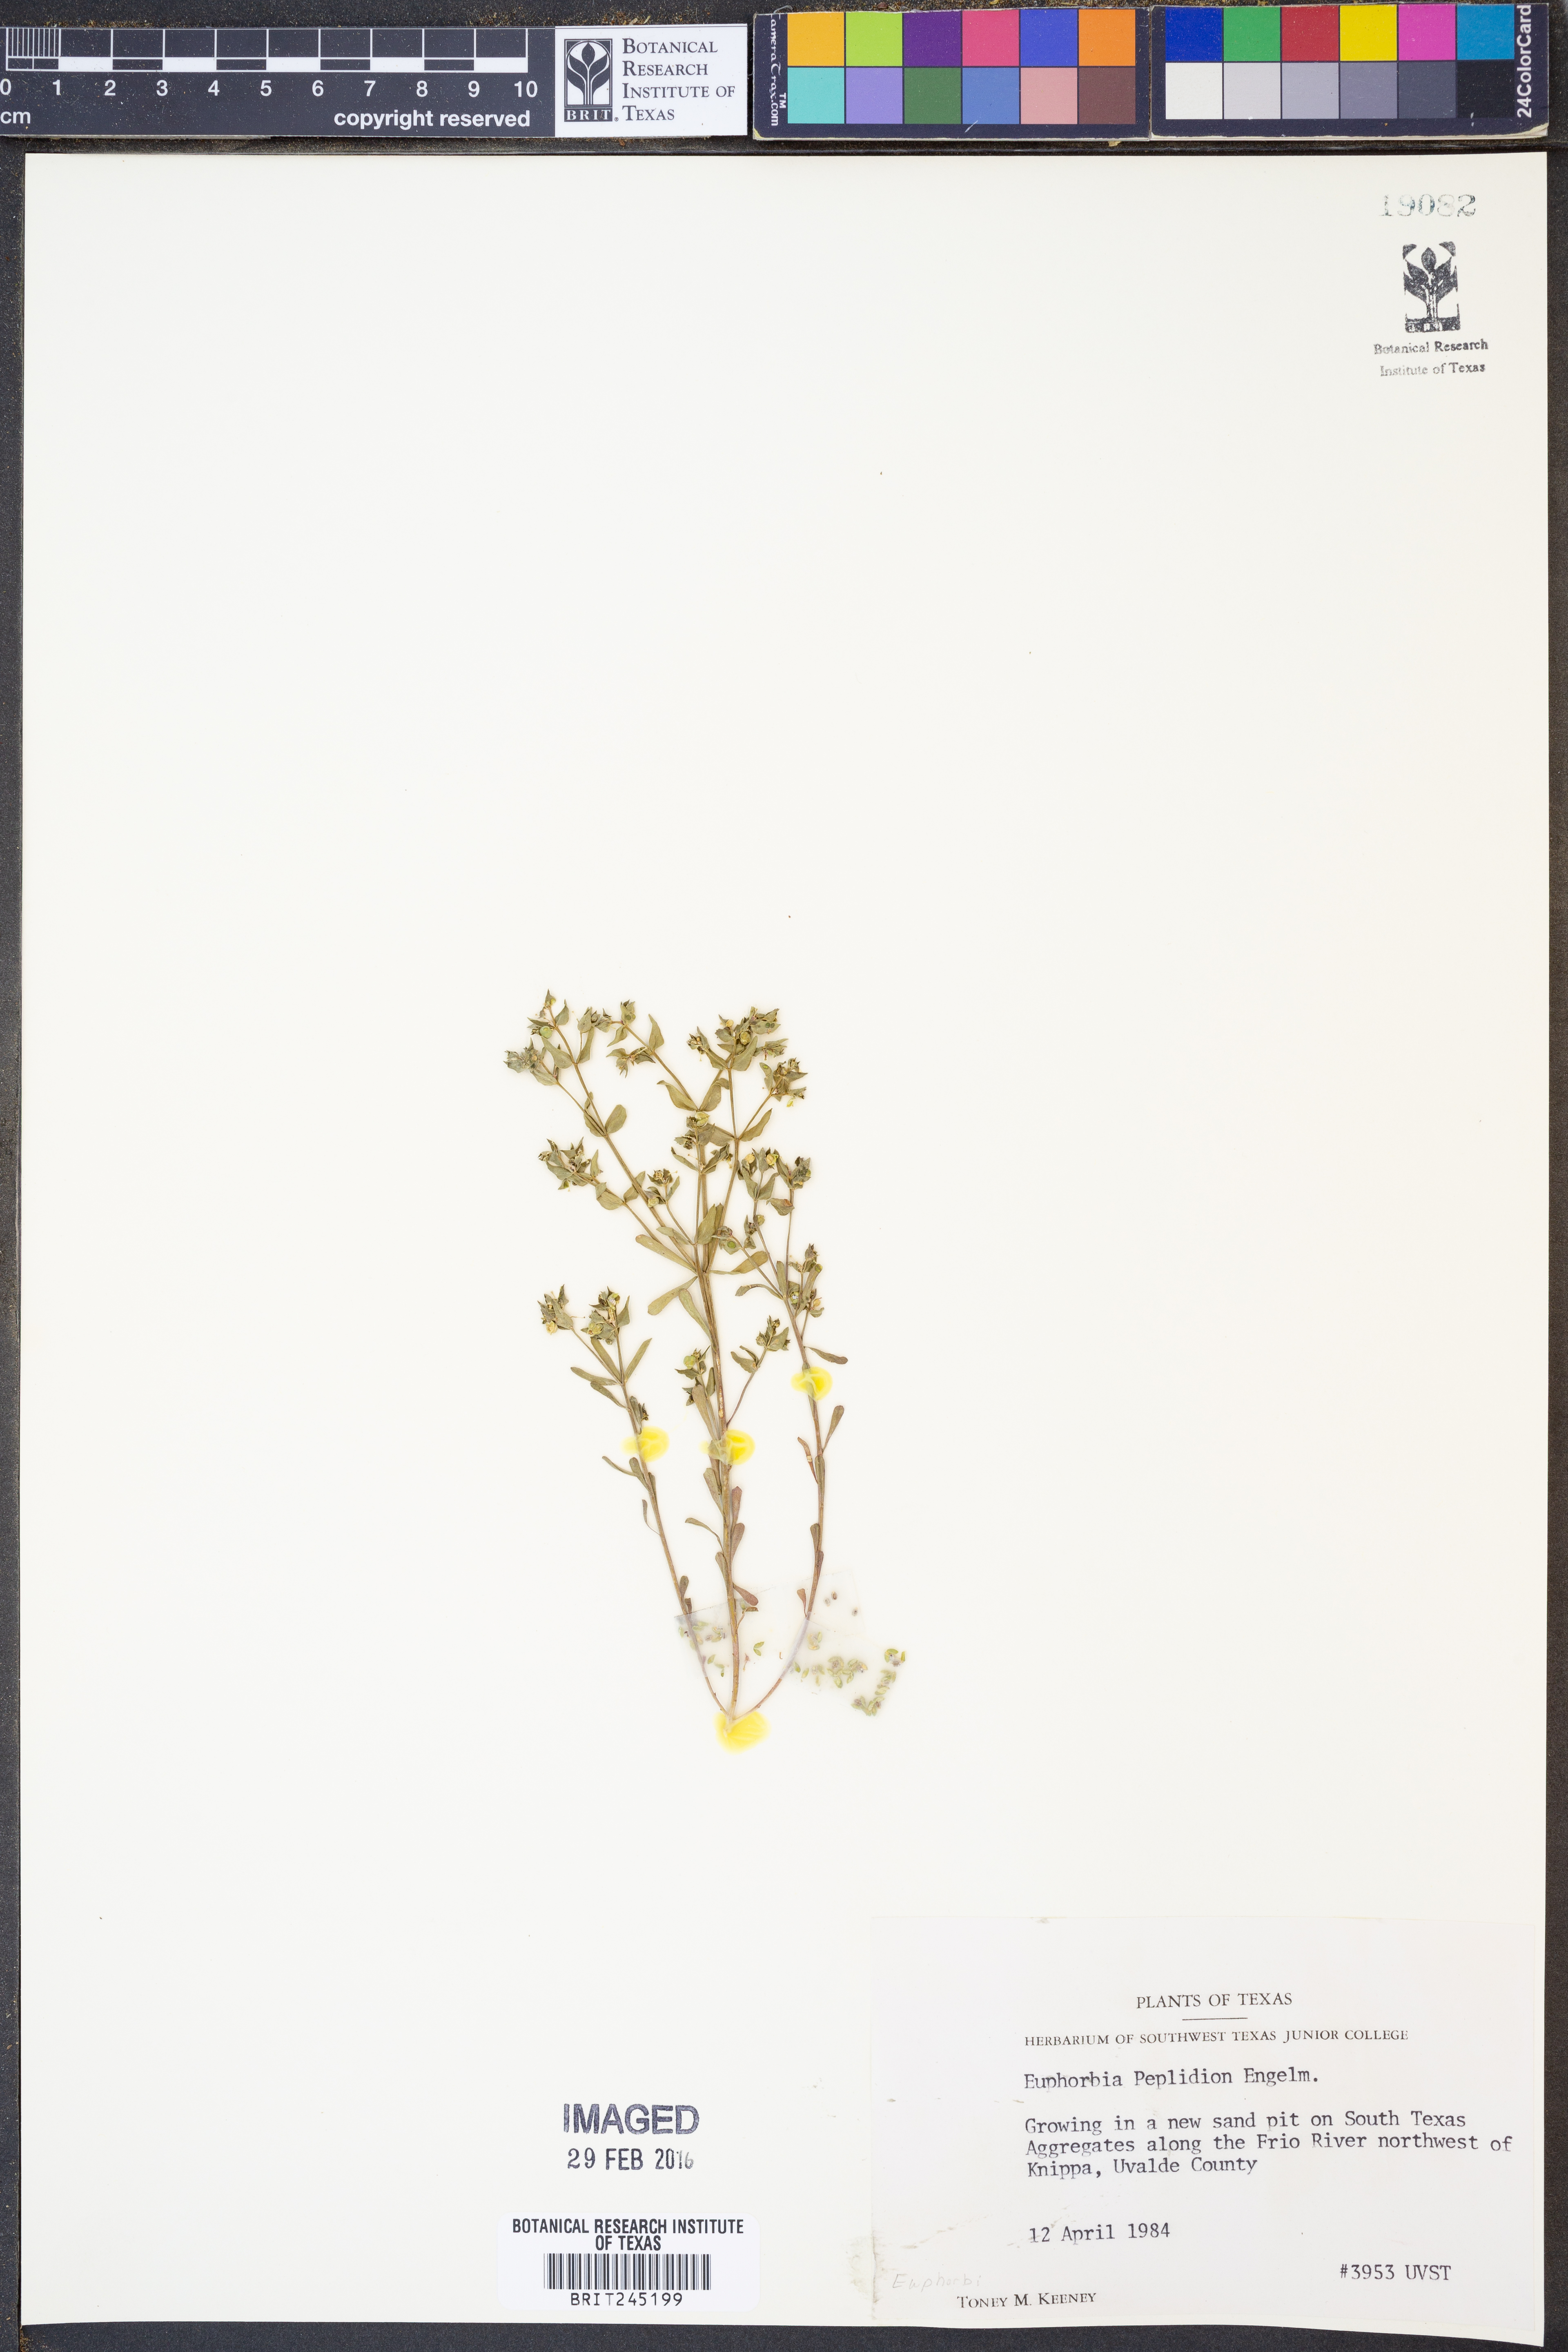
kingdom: Plantae
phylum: Tracheophyta
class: Magnoliopsida
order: Malpighiales
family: Euphorbiaceae
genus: Euphorbia
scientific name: Euphorbia peplidion
